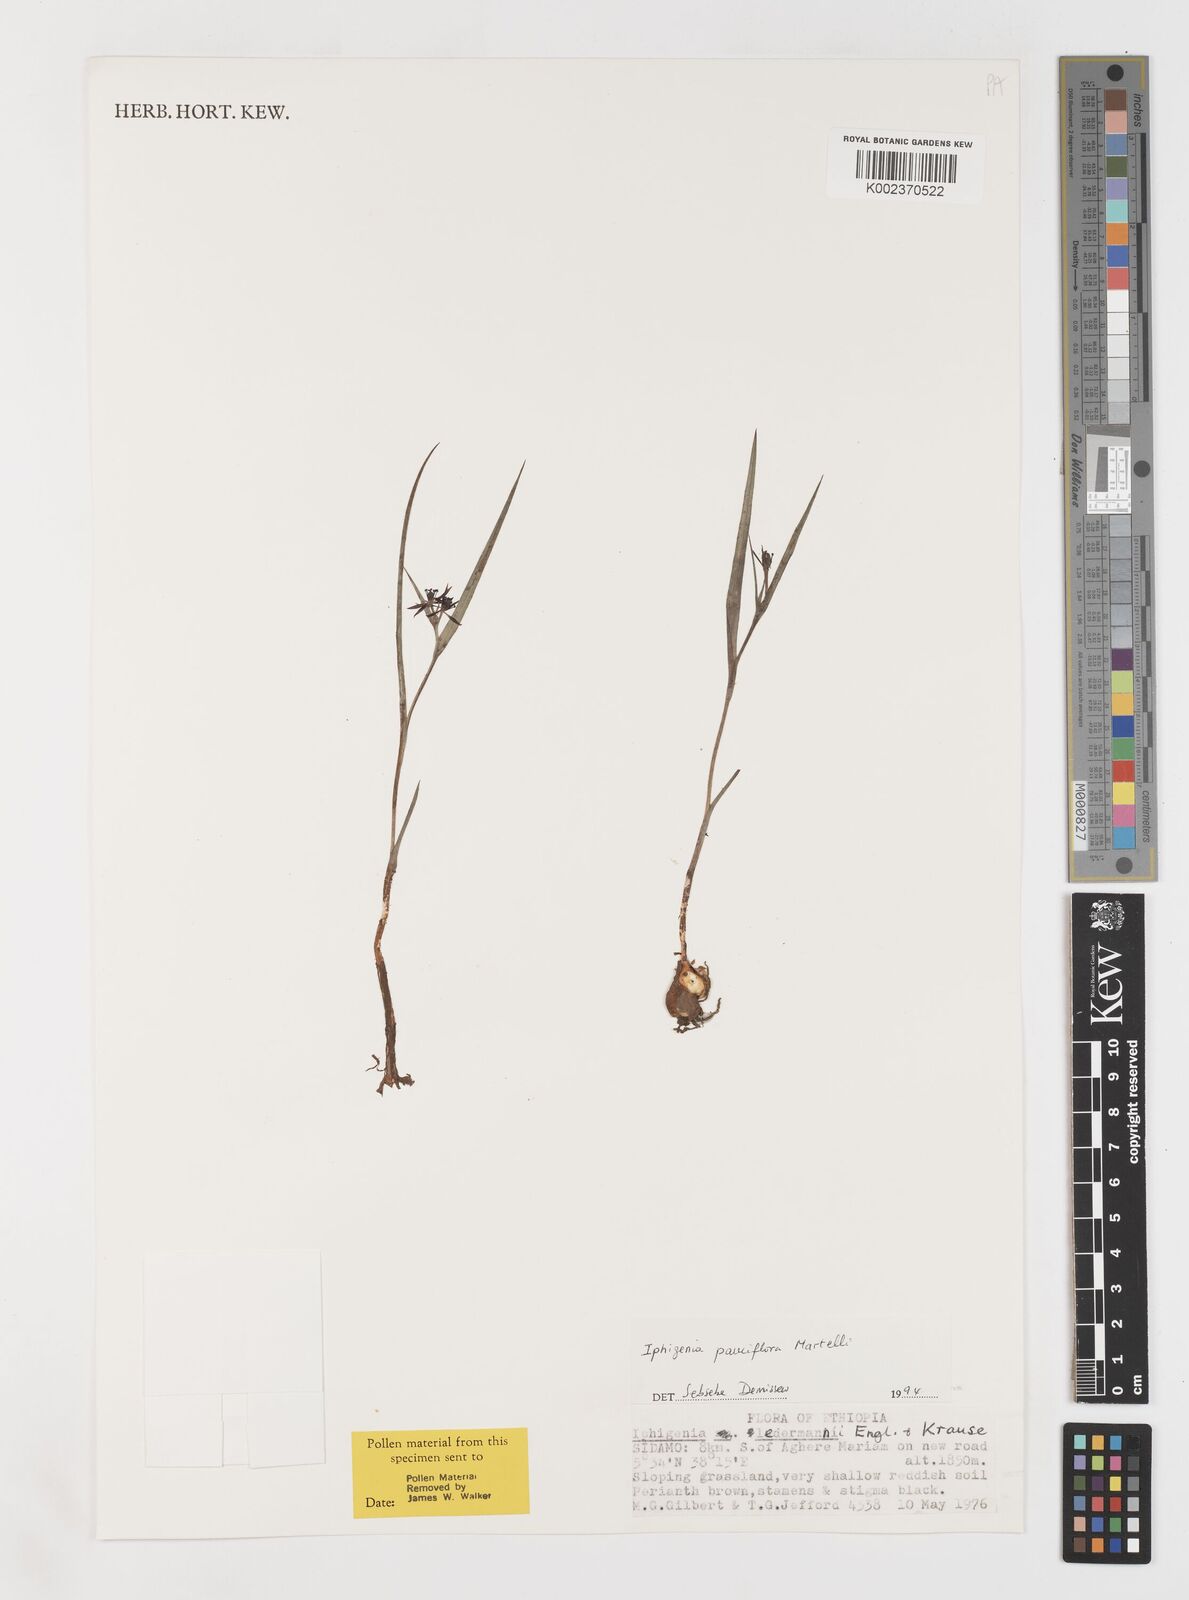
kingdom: Plantae
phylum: Tracheophyta
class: Liliopsida
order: Liliales
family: Colchicaceae
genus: Iphigenia
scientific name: Iphigenia pauciflora
